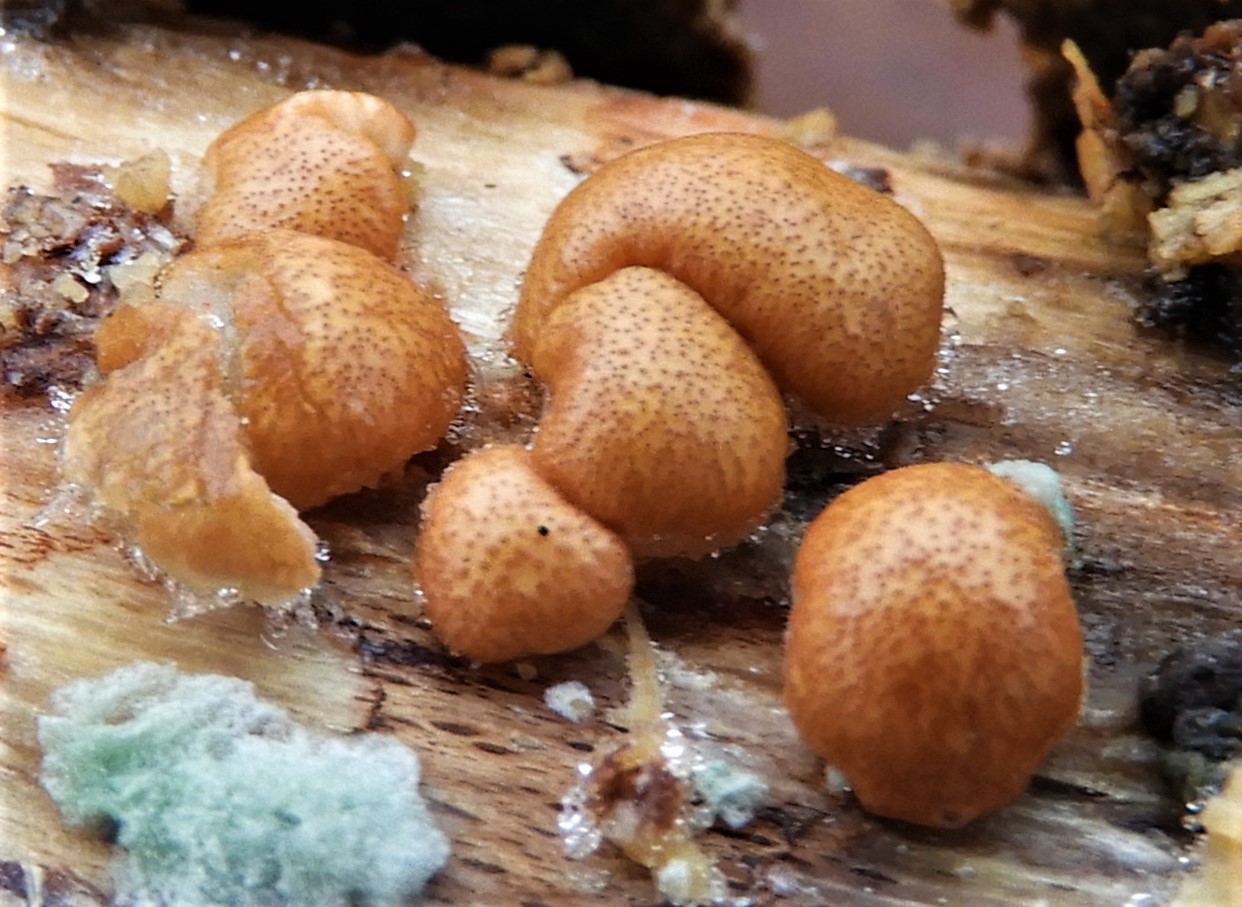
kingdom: Fungi
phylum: Ascomycota
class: Sordariomycetes
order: Hypocreales
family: Hypocreaceae
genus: Trichoderma
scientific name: Trichoderma europaeum
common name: rosabrun kødkerne
